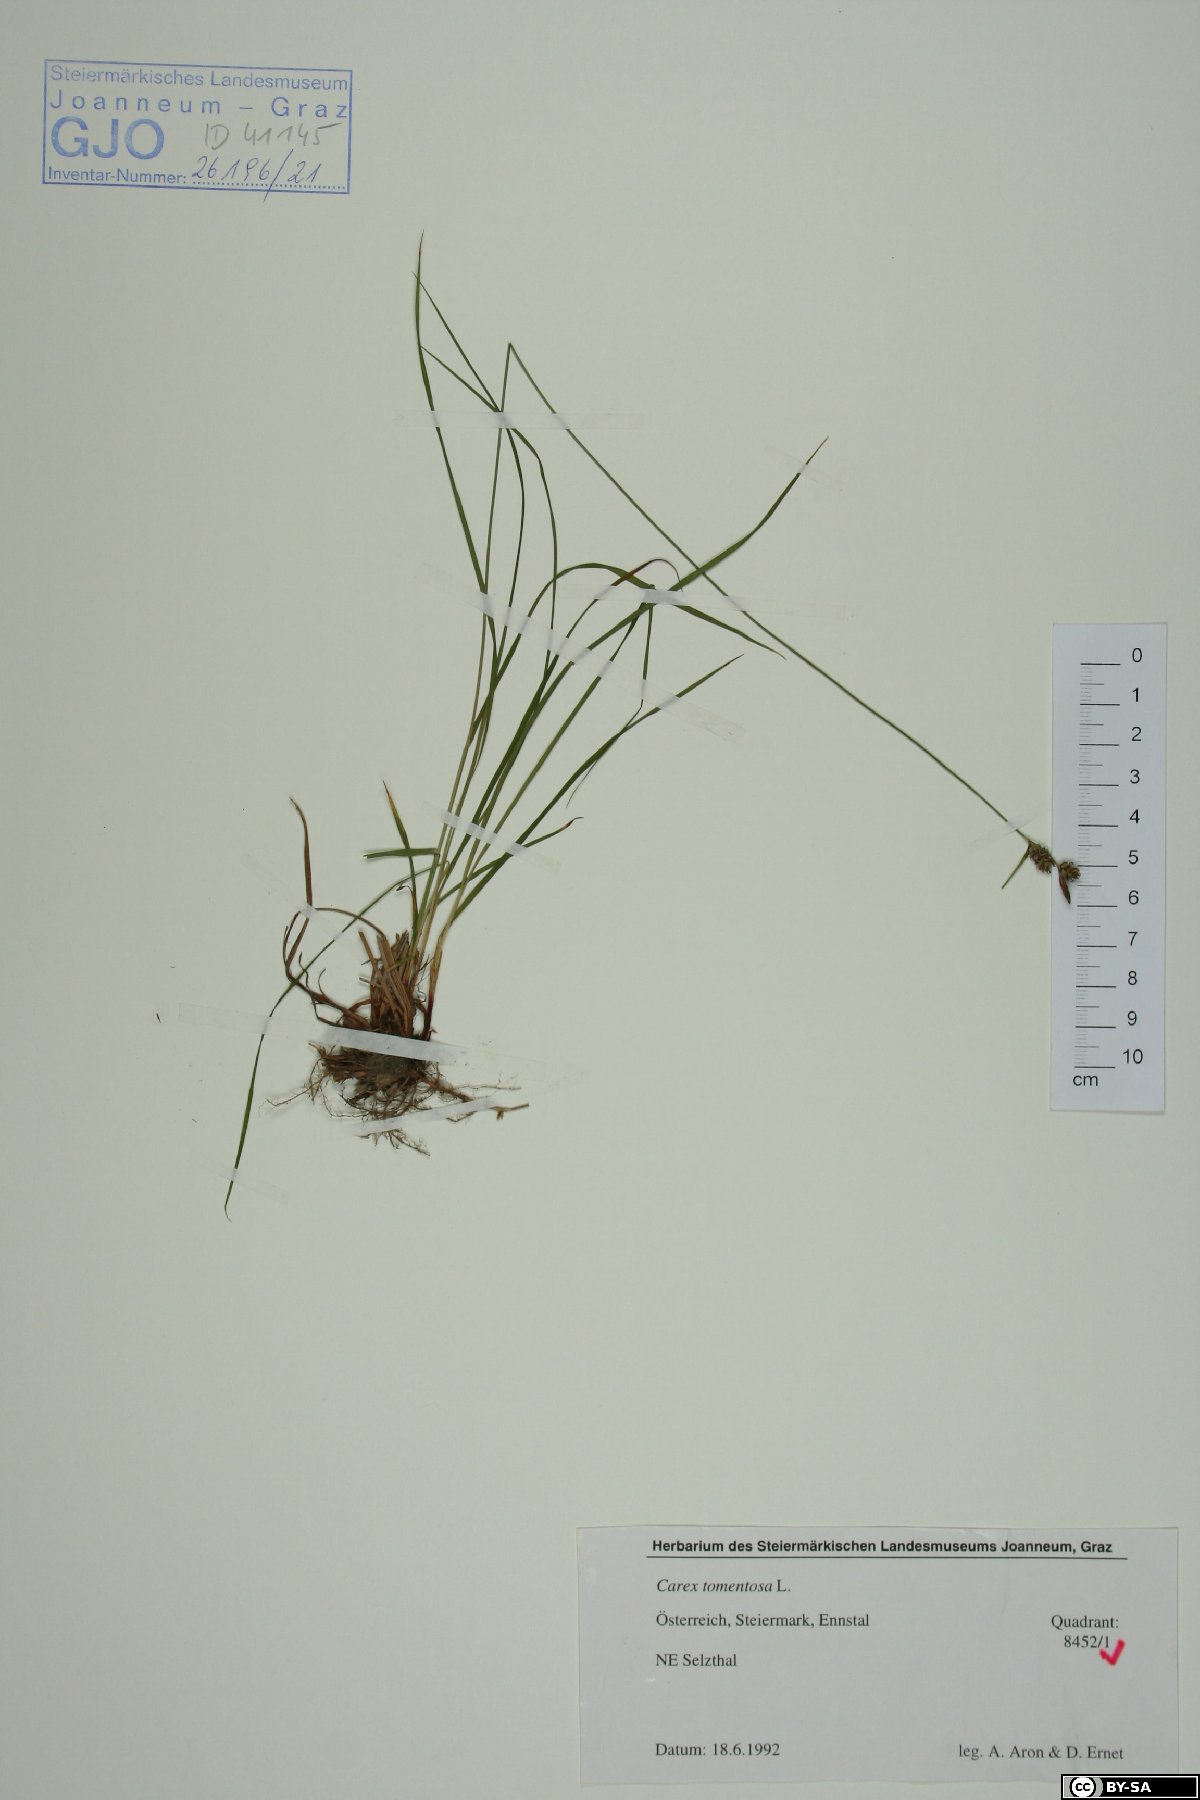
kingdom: Plantae
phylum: Tracheophyta
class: Liliopsida
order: Poales
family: Cyperaceae
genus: Carex
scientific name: Carex tomentosa
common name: Downy-fruited sedge
